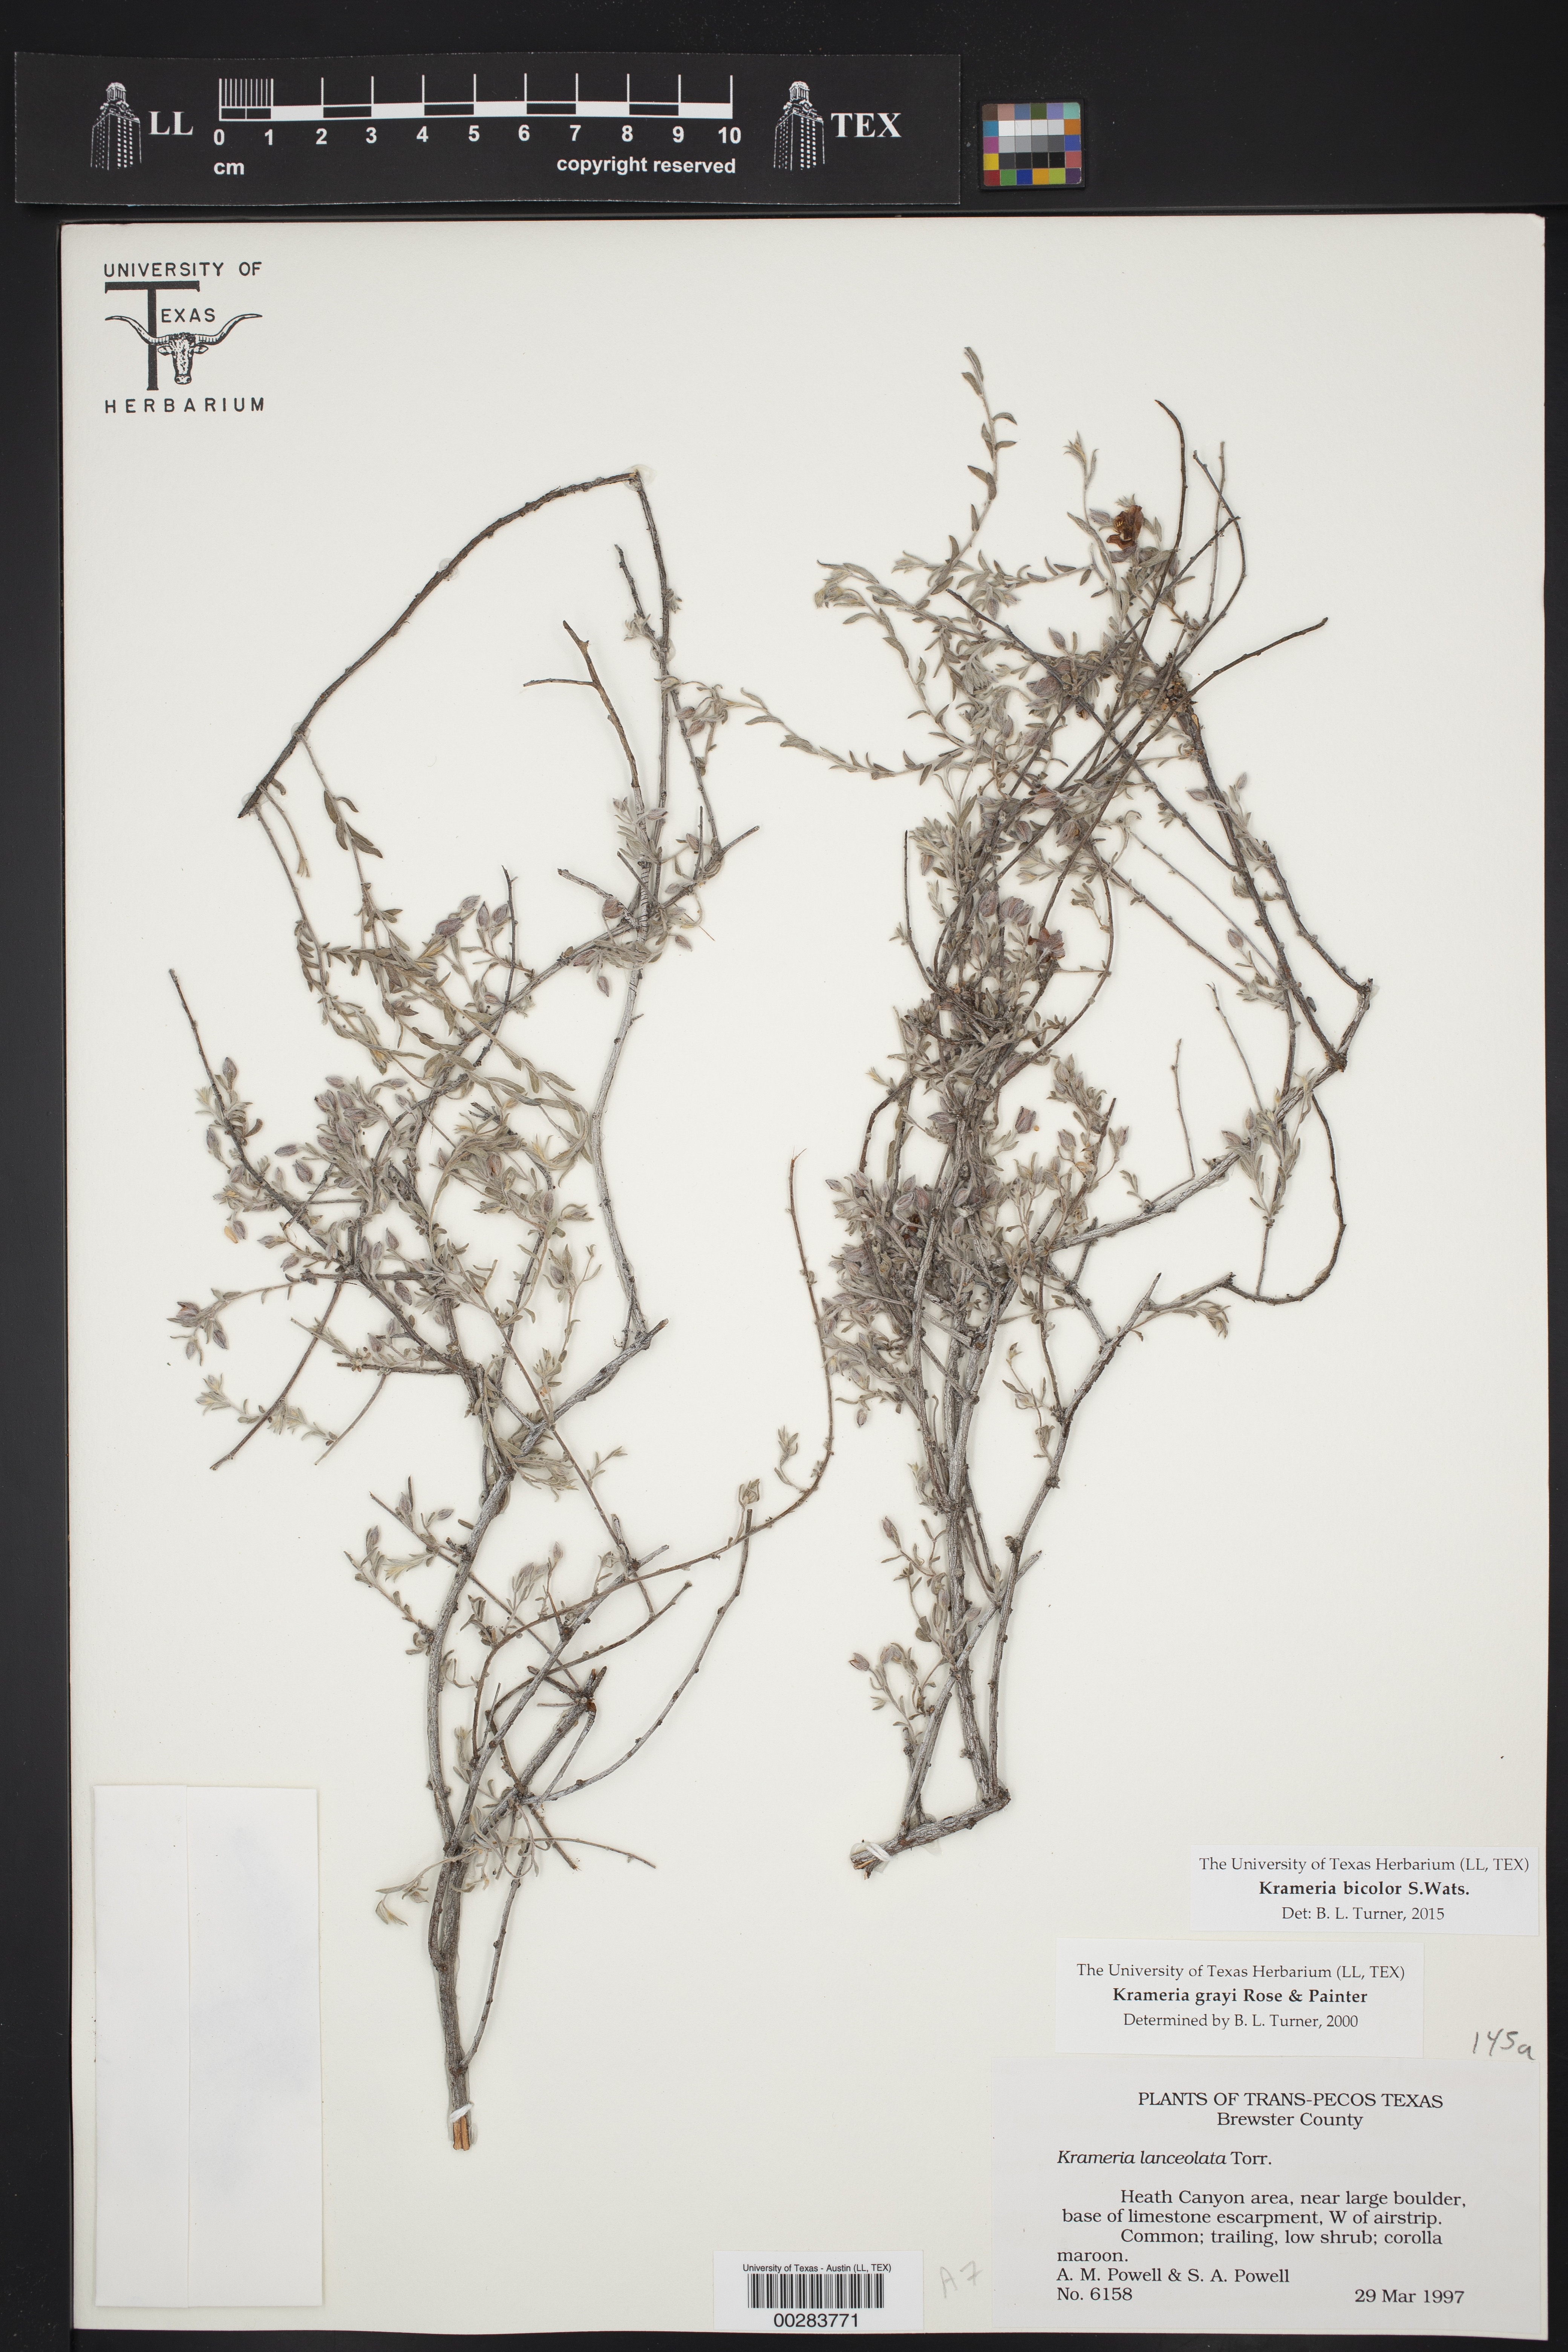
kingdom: Plantae
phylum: Tracheophyta
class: Magnoliopsida
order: Zygophyllales
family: Krameriaceae
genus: Krameria
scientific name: Krameria bicolor
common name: White ratany
